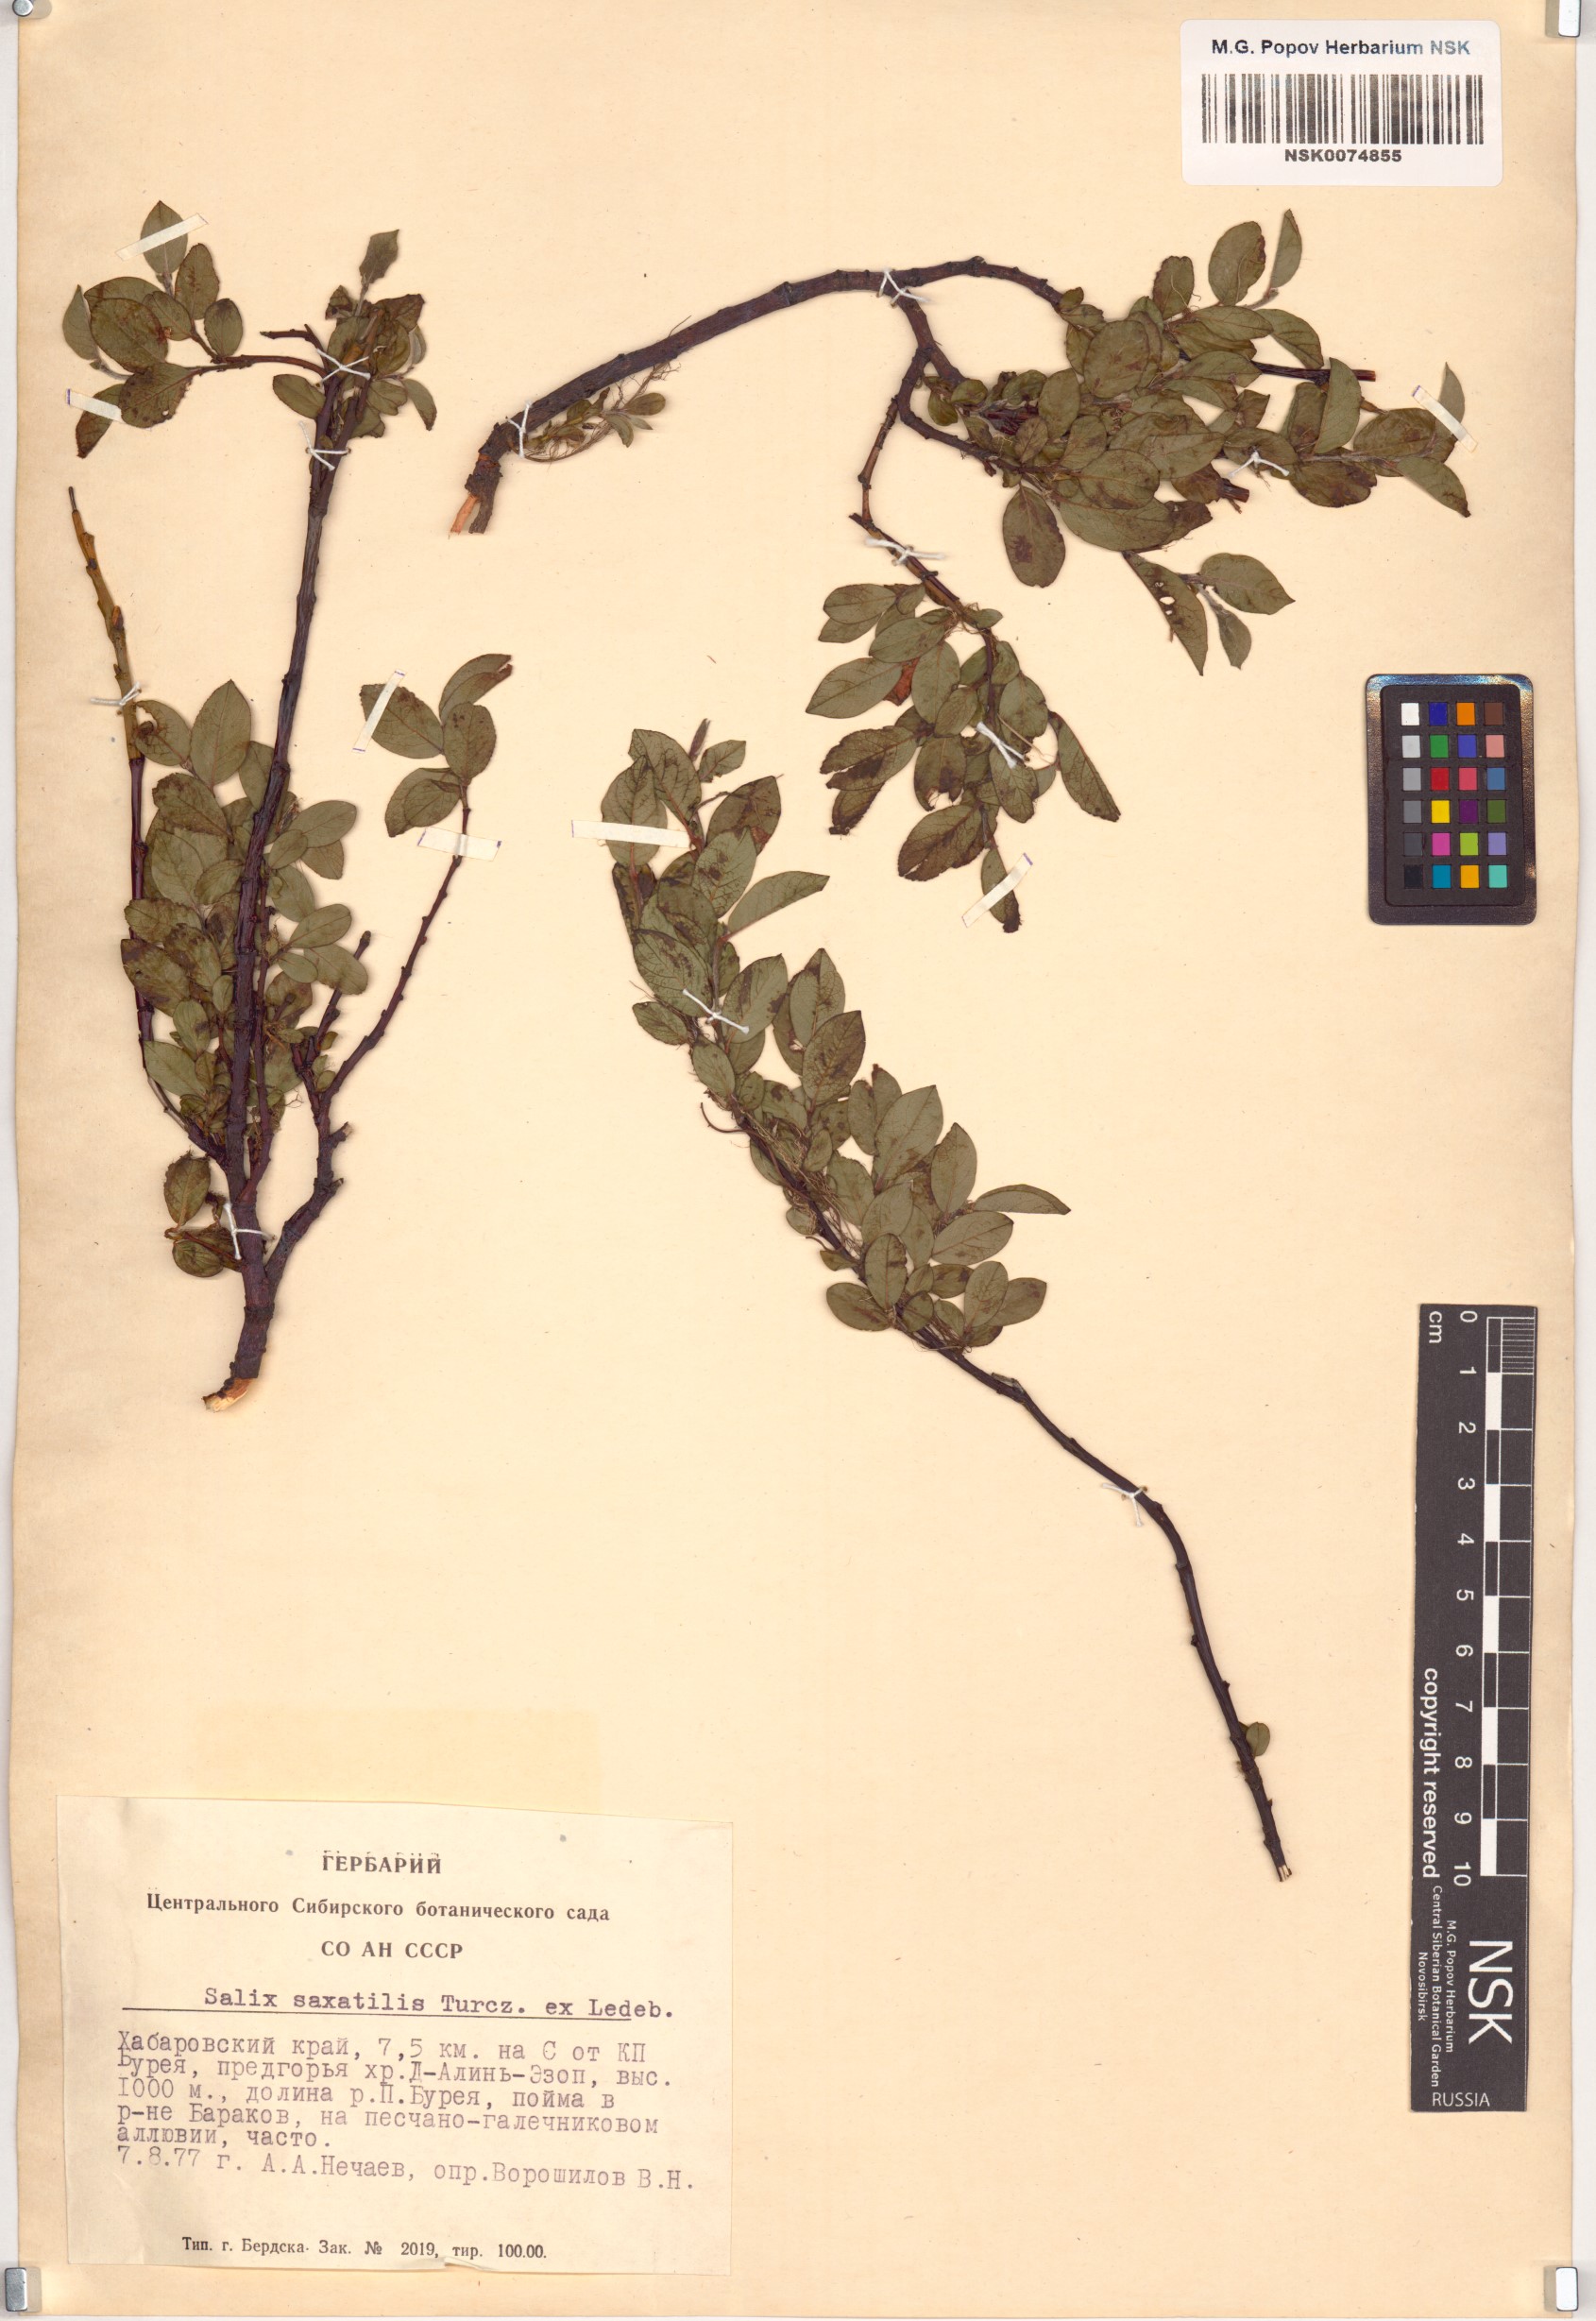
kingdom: Plantae
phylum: Tracheophyta
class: Magnoliopsida
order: Malpighiales
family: Salicaceae
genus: Salix
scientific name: Salix saxatilis
